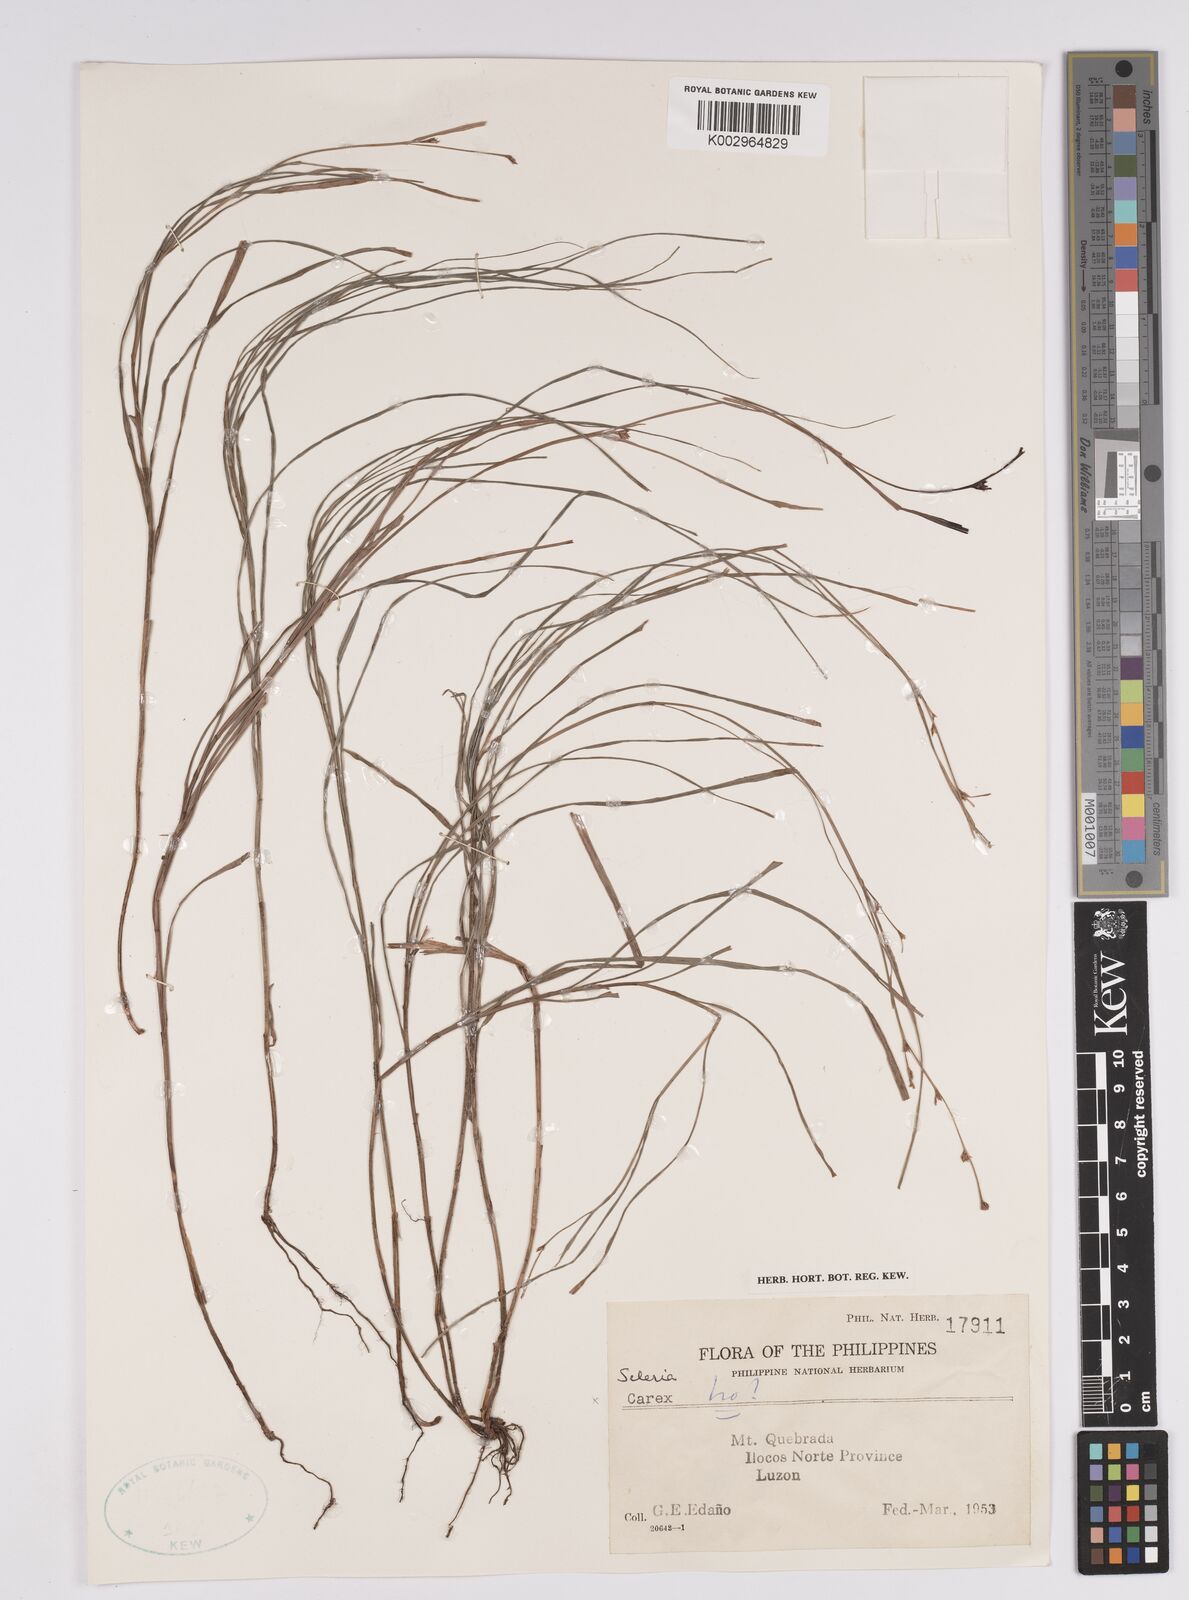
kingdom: Plantae
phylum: Tracheophyta
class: Liliopsida
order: Poales
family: Cyperaceae
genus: Scleria
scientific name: Scleria
